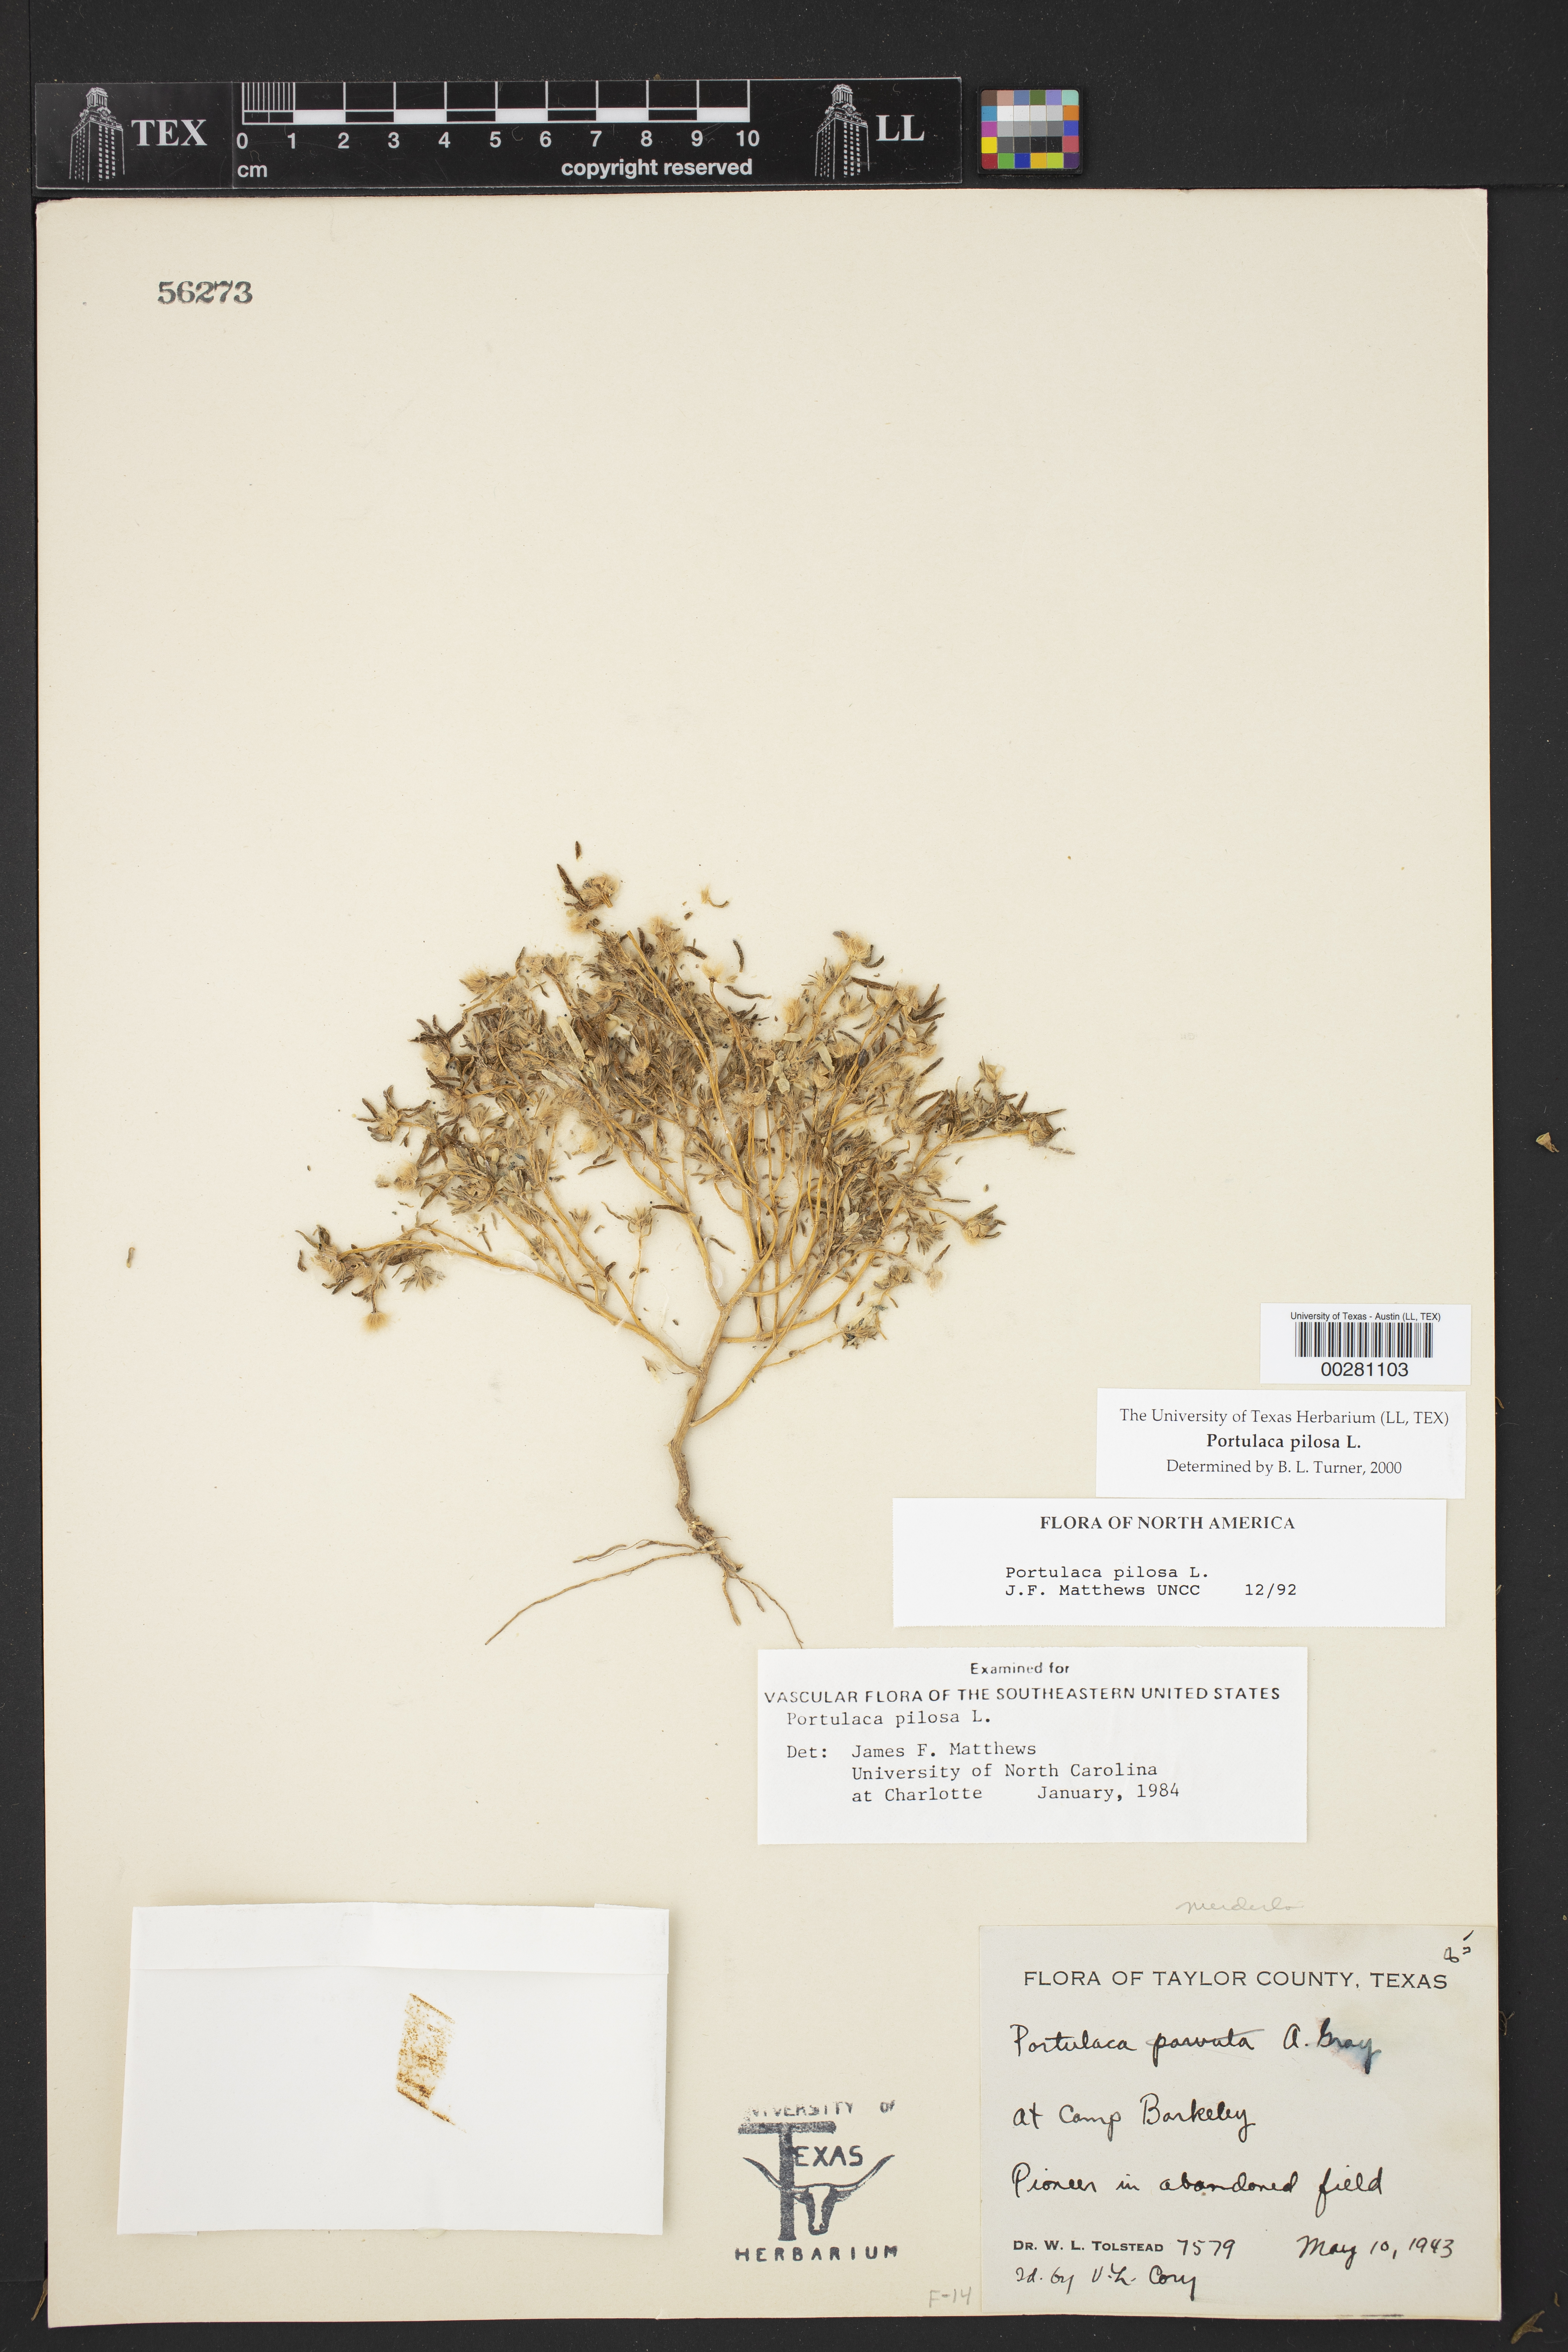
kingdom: Plantae
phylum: Tracheophyta
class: Magnoliopsida
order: Caryophyllales
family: Portulacaceae
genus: Portulaca
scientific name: Portulaca pilosa
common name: Kiss me quick
